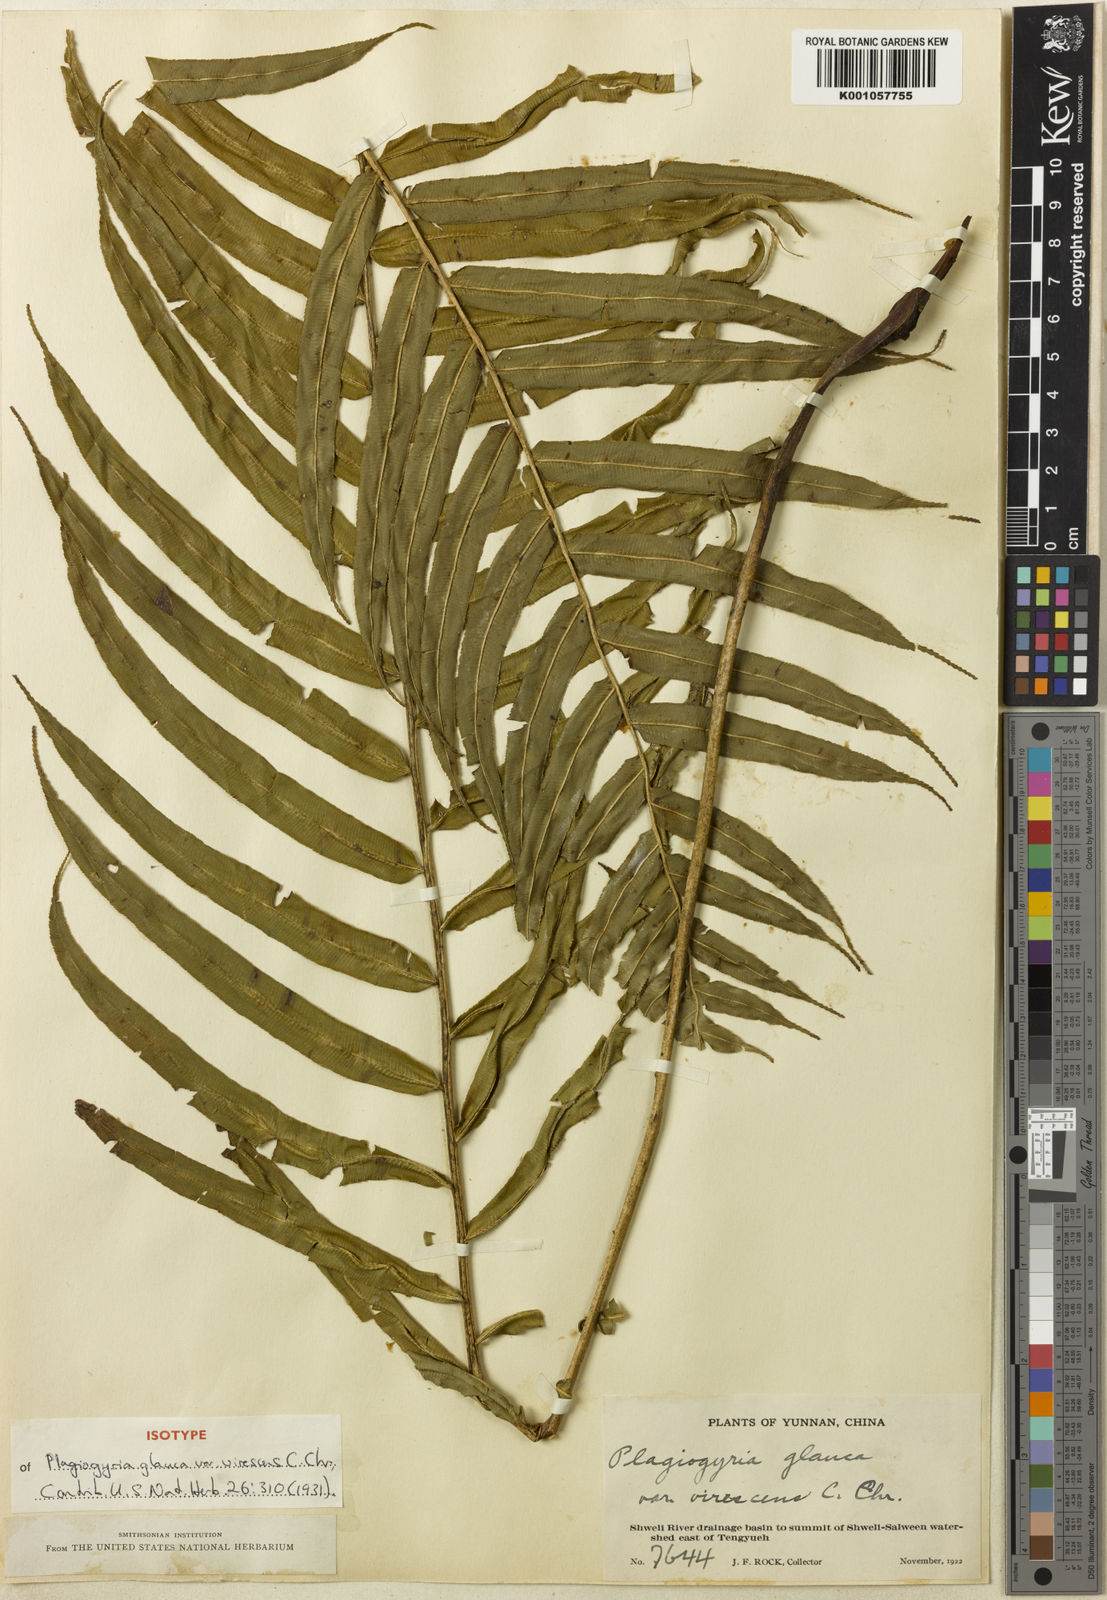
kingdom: Plantae
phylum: Tracheophyta
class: Polypodiopsida
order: Cyatheales
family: Plagiogyriaceae
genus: Plagiogyria
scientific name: Plagiogyria pycnophylla
